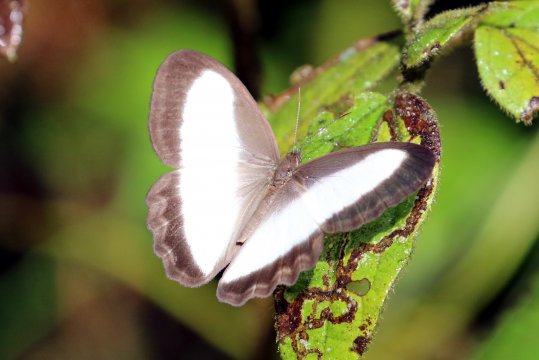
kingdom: Animalia
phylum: Arthropoda
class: Insecta
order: Lepidoptera
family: Nymphalidae
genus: Oressinoma
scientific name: Oressinoma typhla
